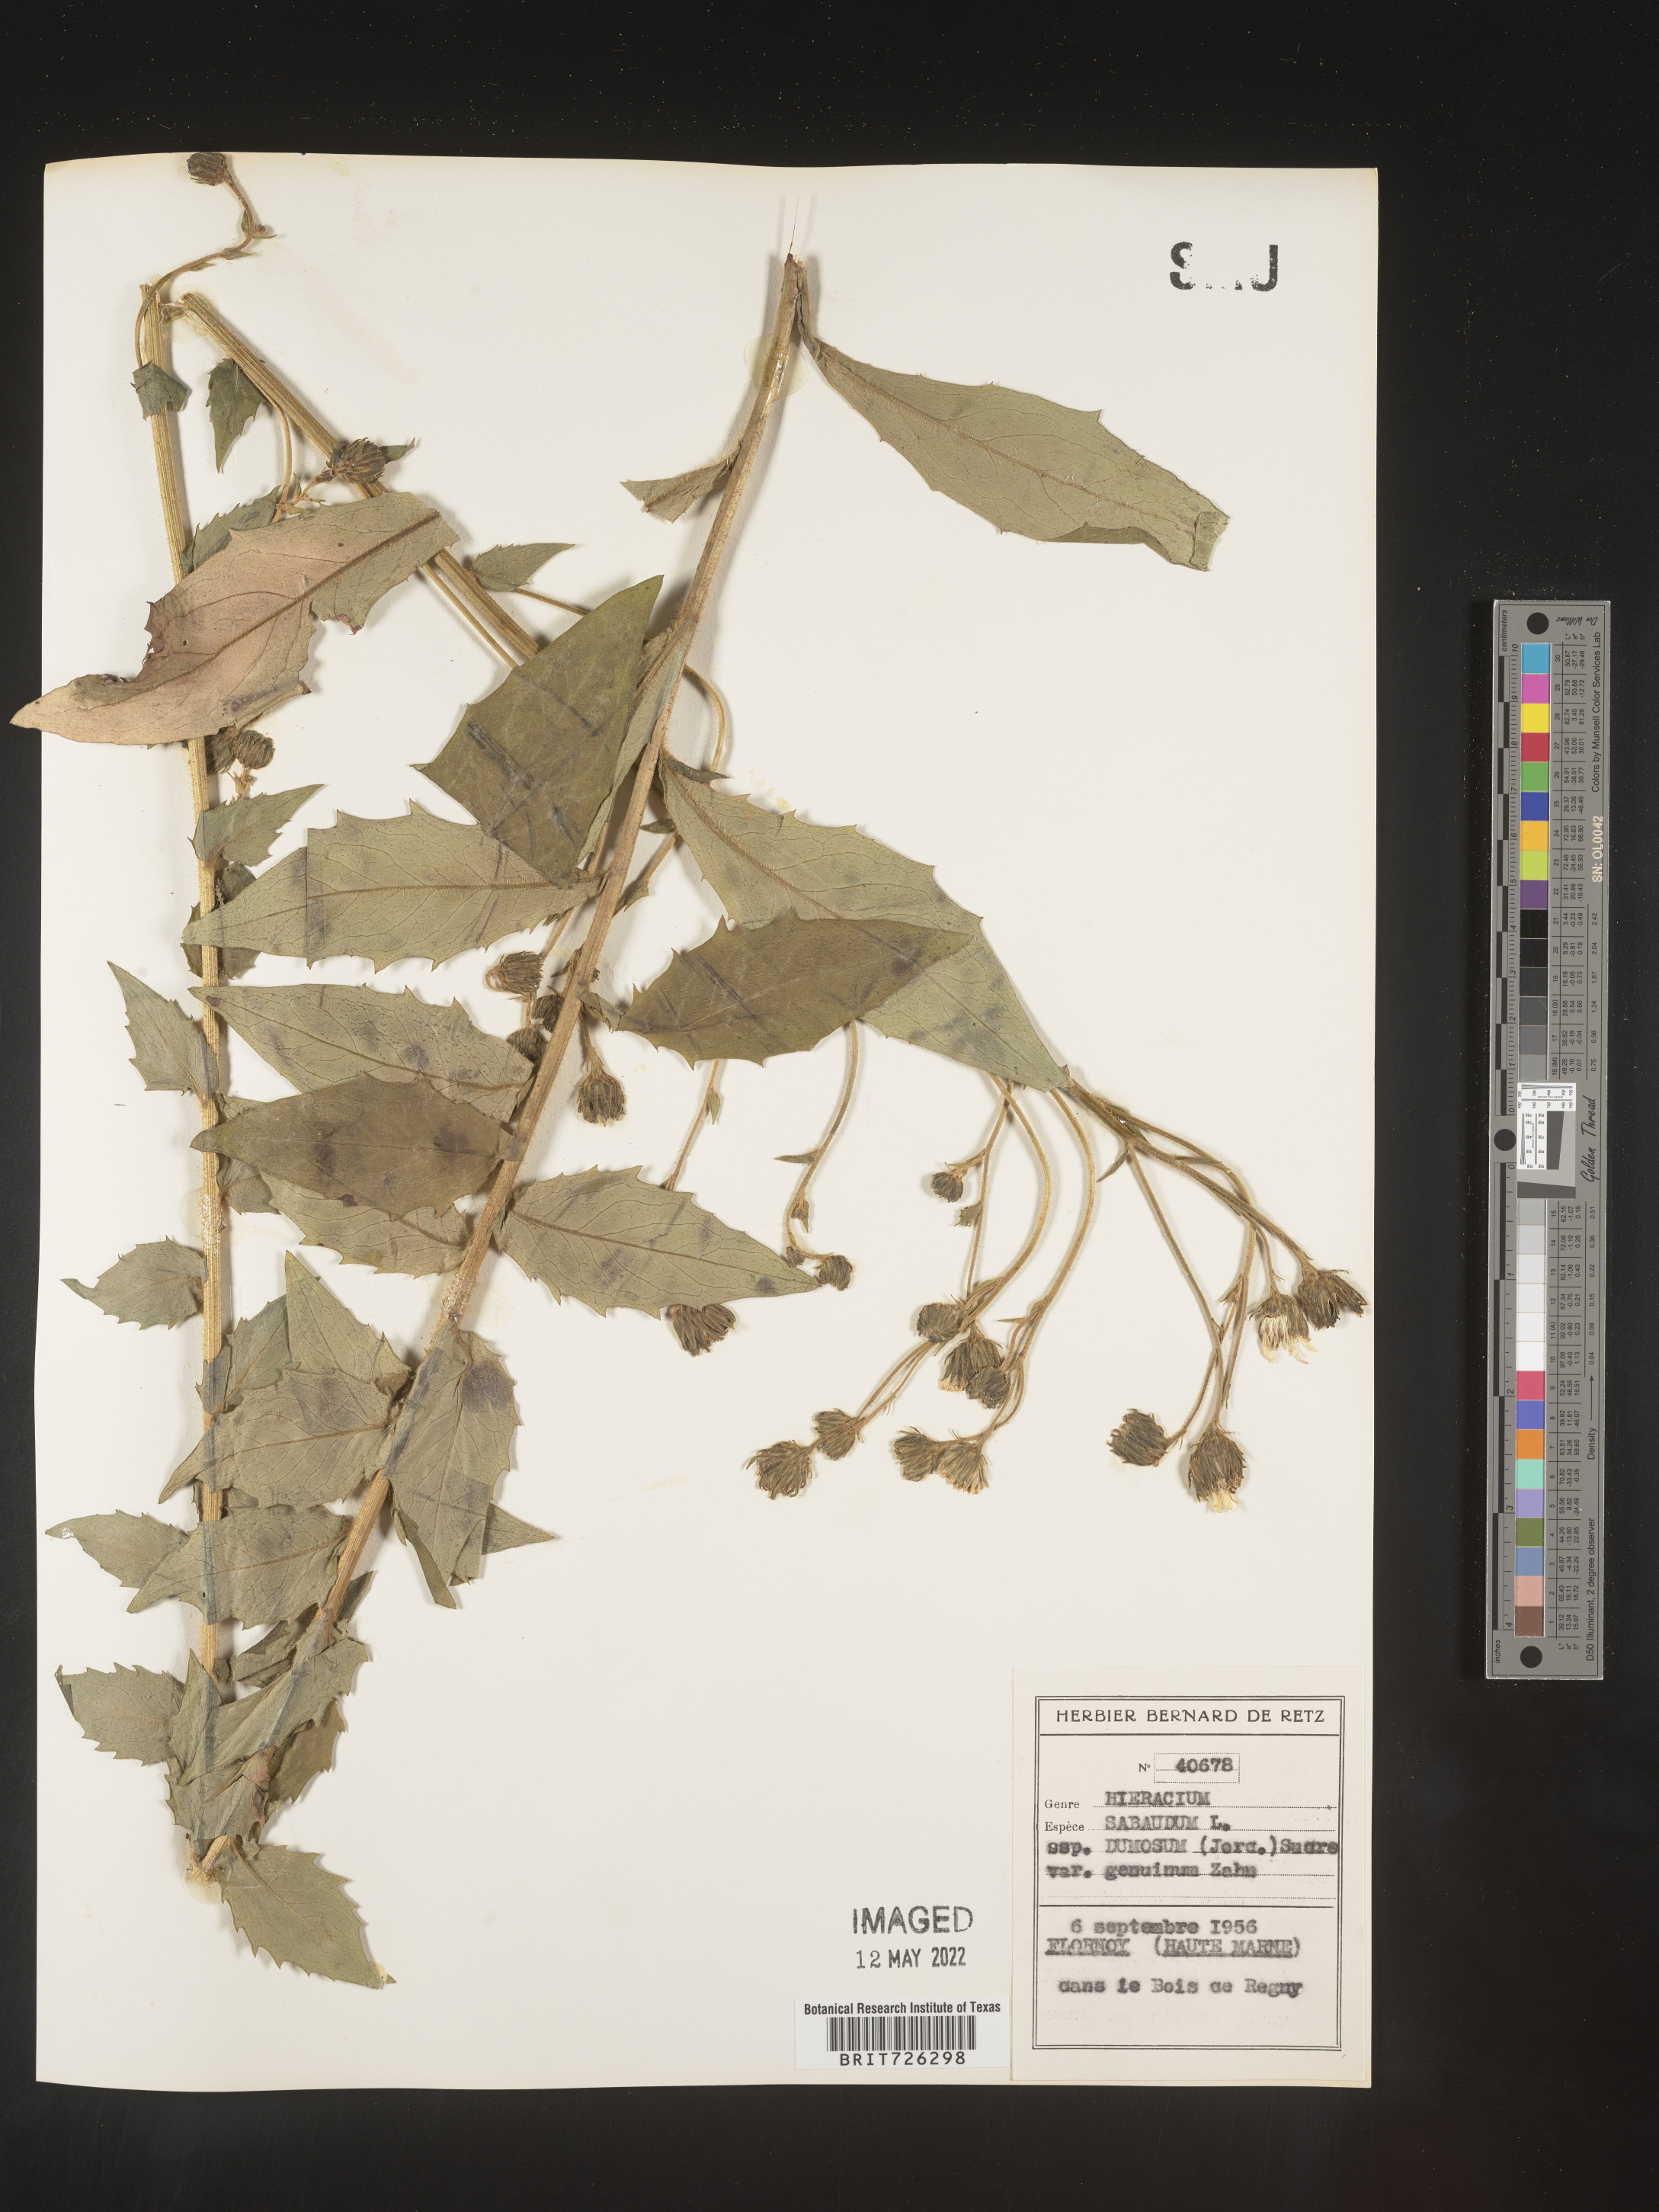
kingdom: Plantae
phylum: Tracheophyta
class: Magnoliopsida
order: Asterales
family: Asteraceae
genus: Hieracium
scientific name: Hieracium
